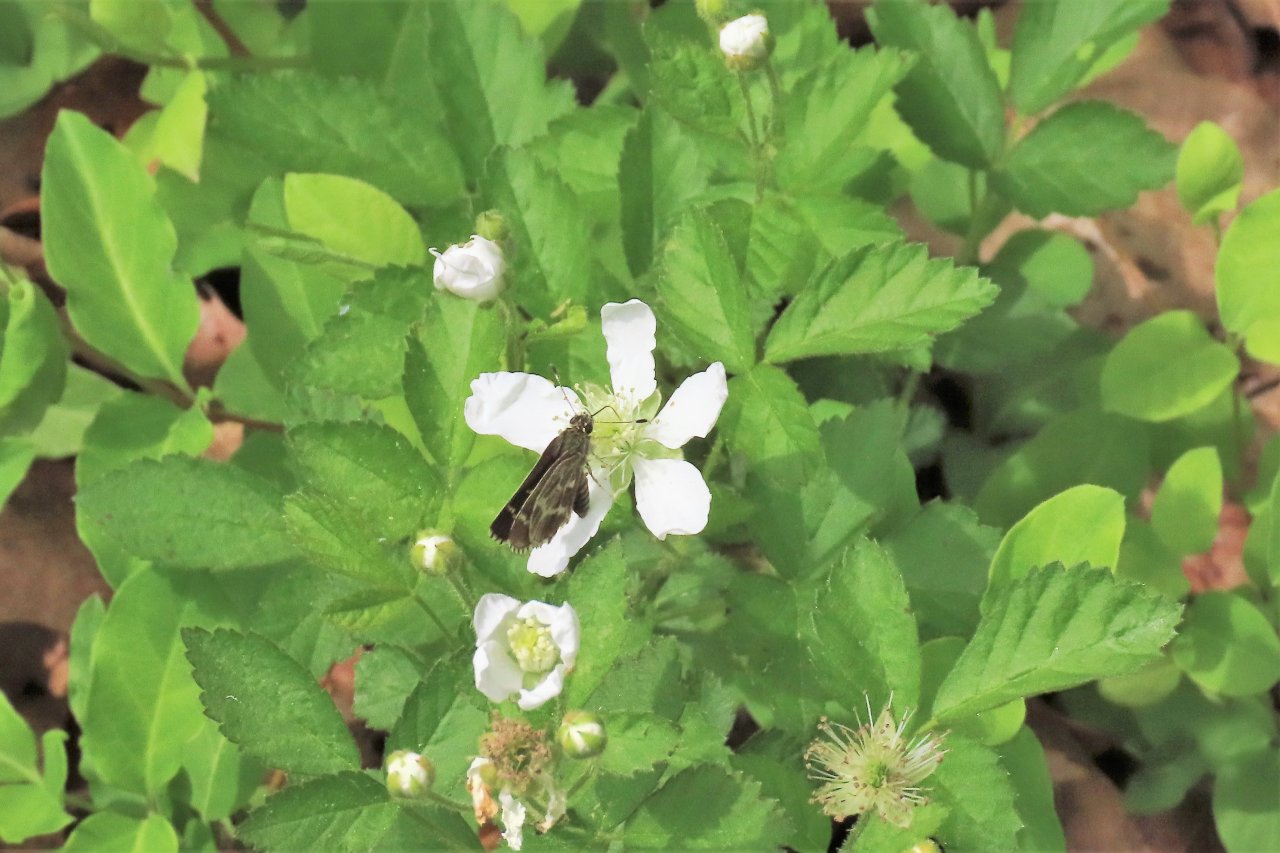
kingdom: Animalia
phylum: Arthropoda
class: Insecta
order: Lepidoptera
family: Hesperiidae
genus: Mastor
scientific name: Mastor aesculapius
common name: Lace-winged Roadside-Skipper
